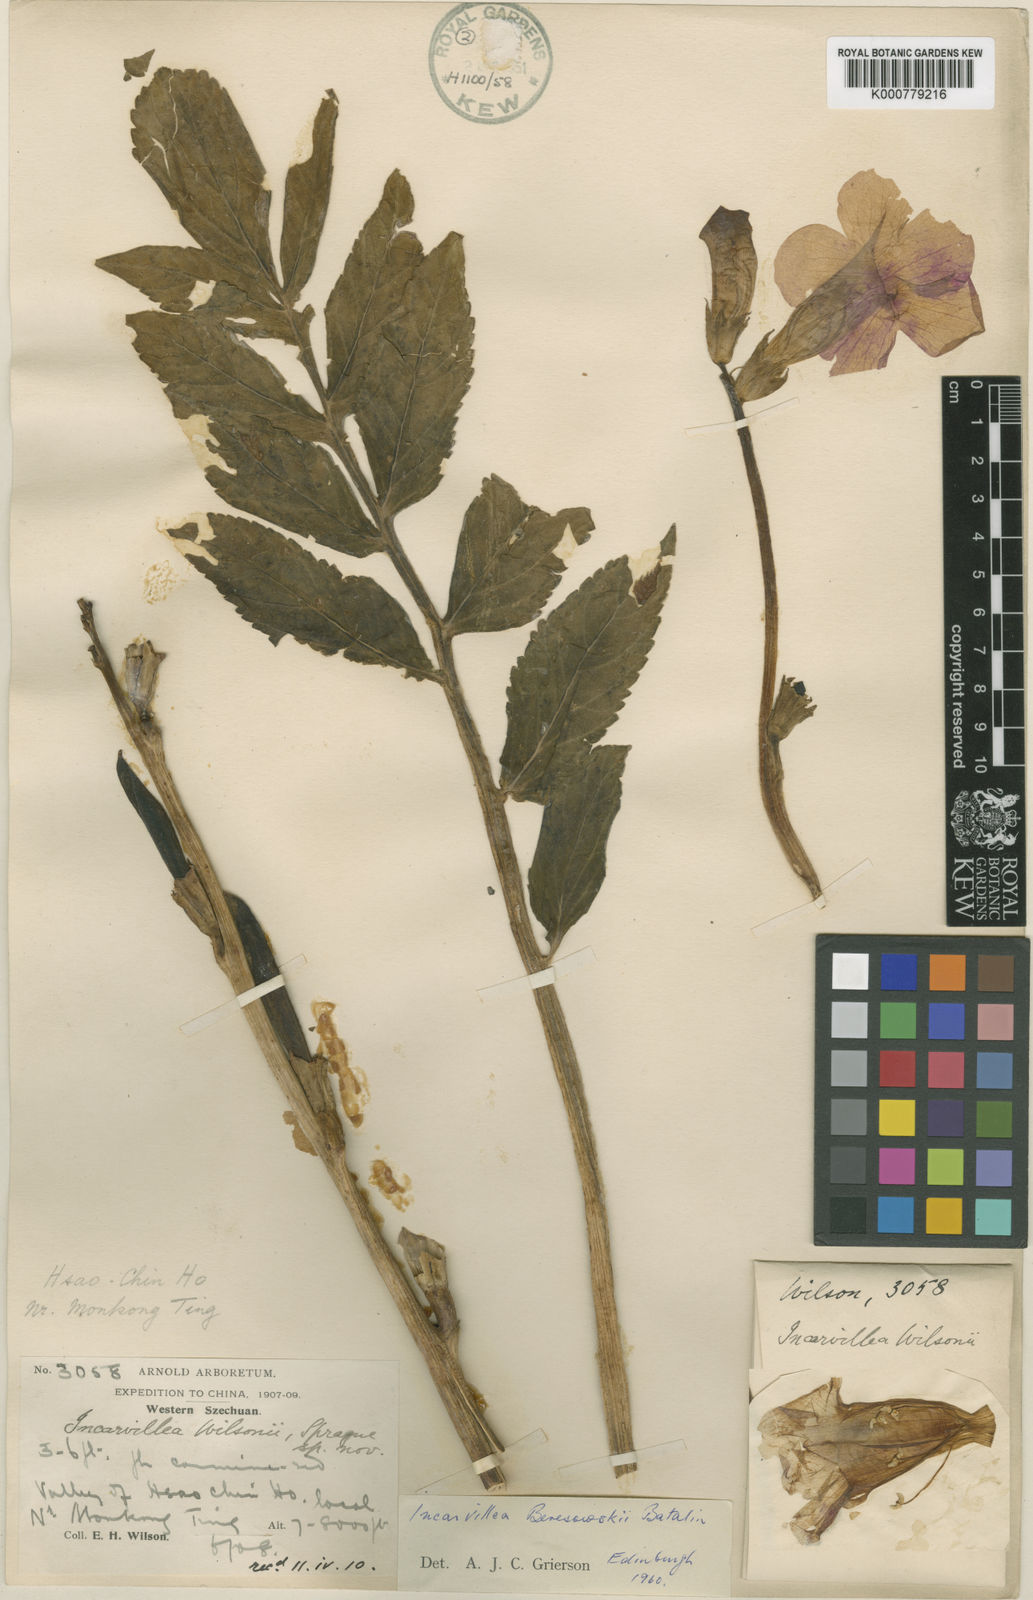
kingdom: Plantae
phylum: Tracheophyta
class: Magnoliopsida
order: Lamiales
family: Bignoniaceae
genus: Incarvillea
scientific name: Incarvillea beresowskii
